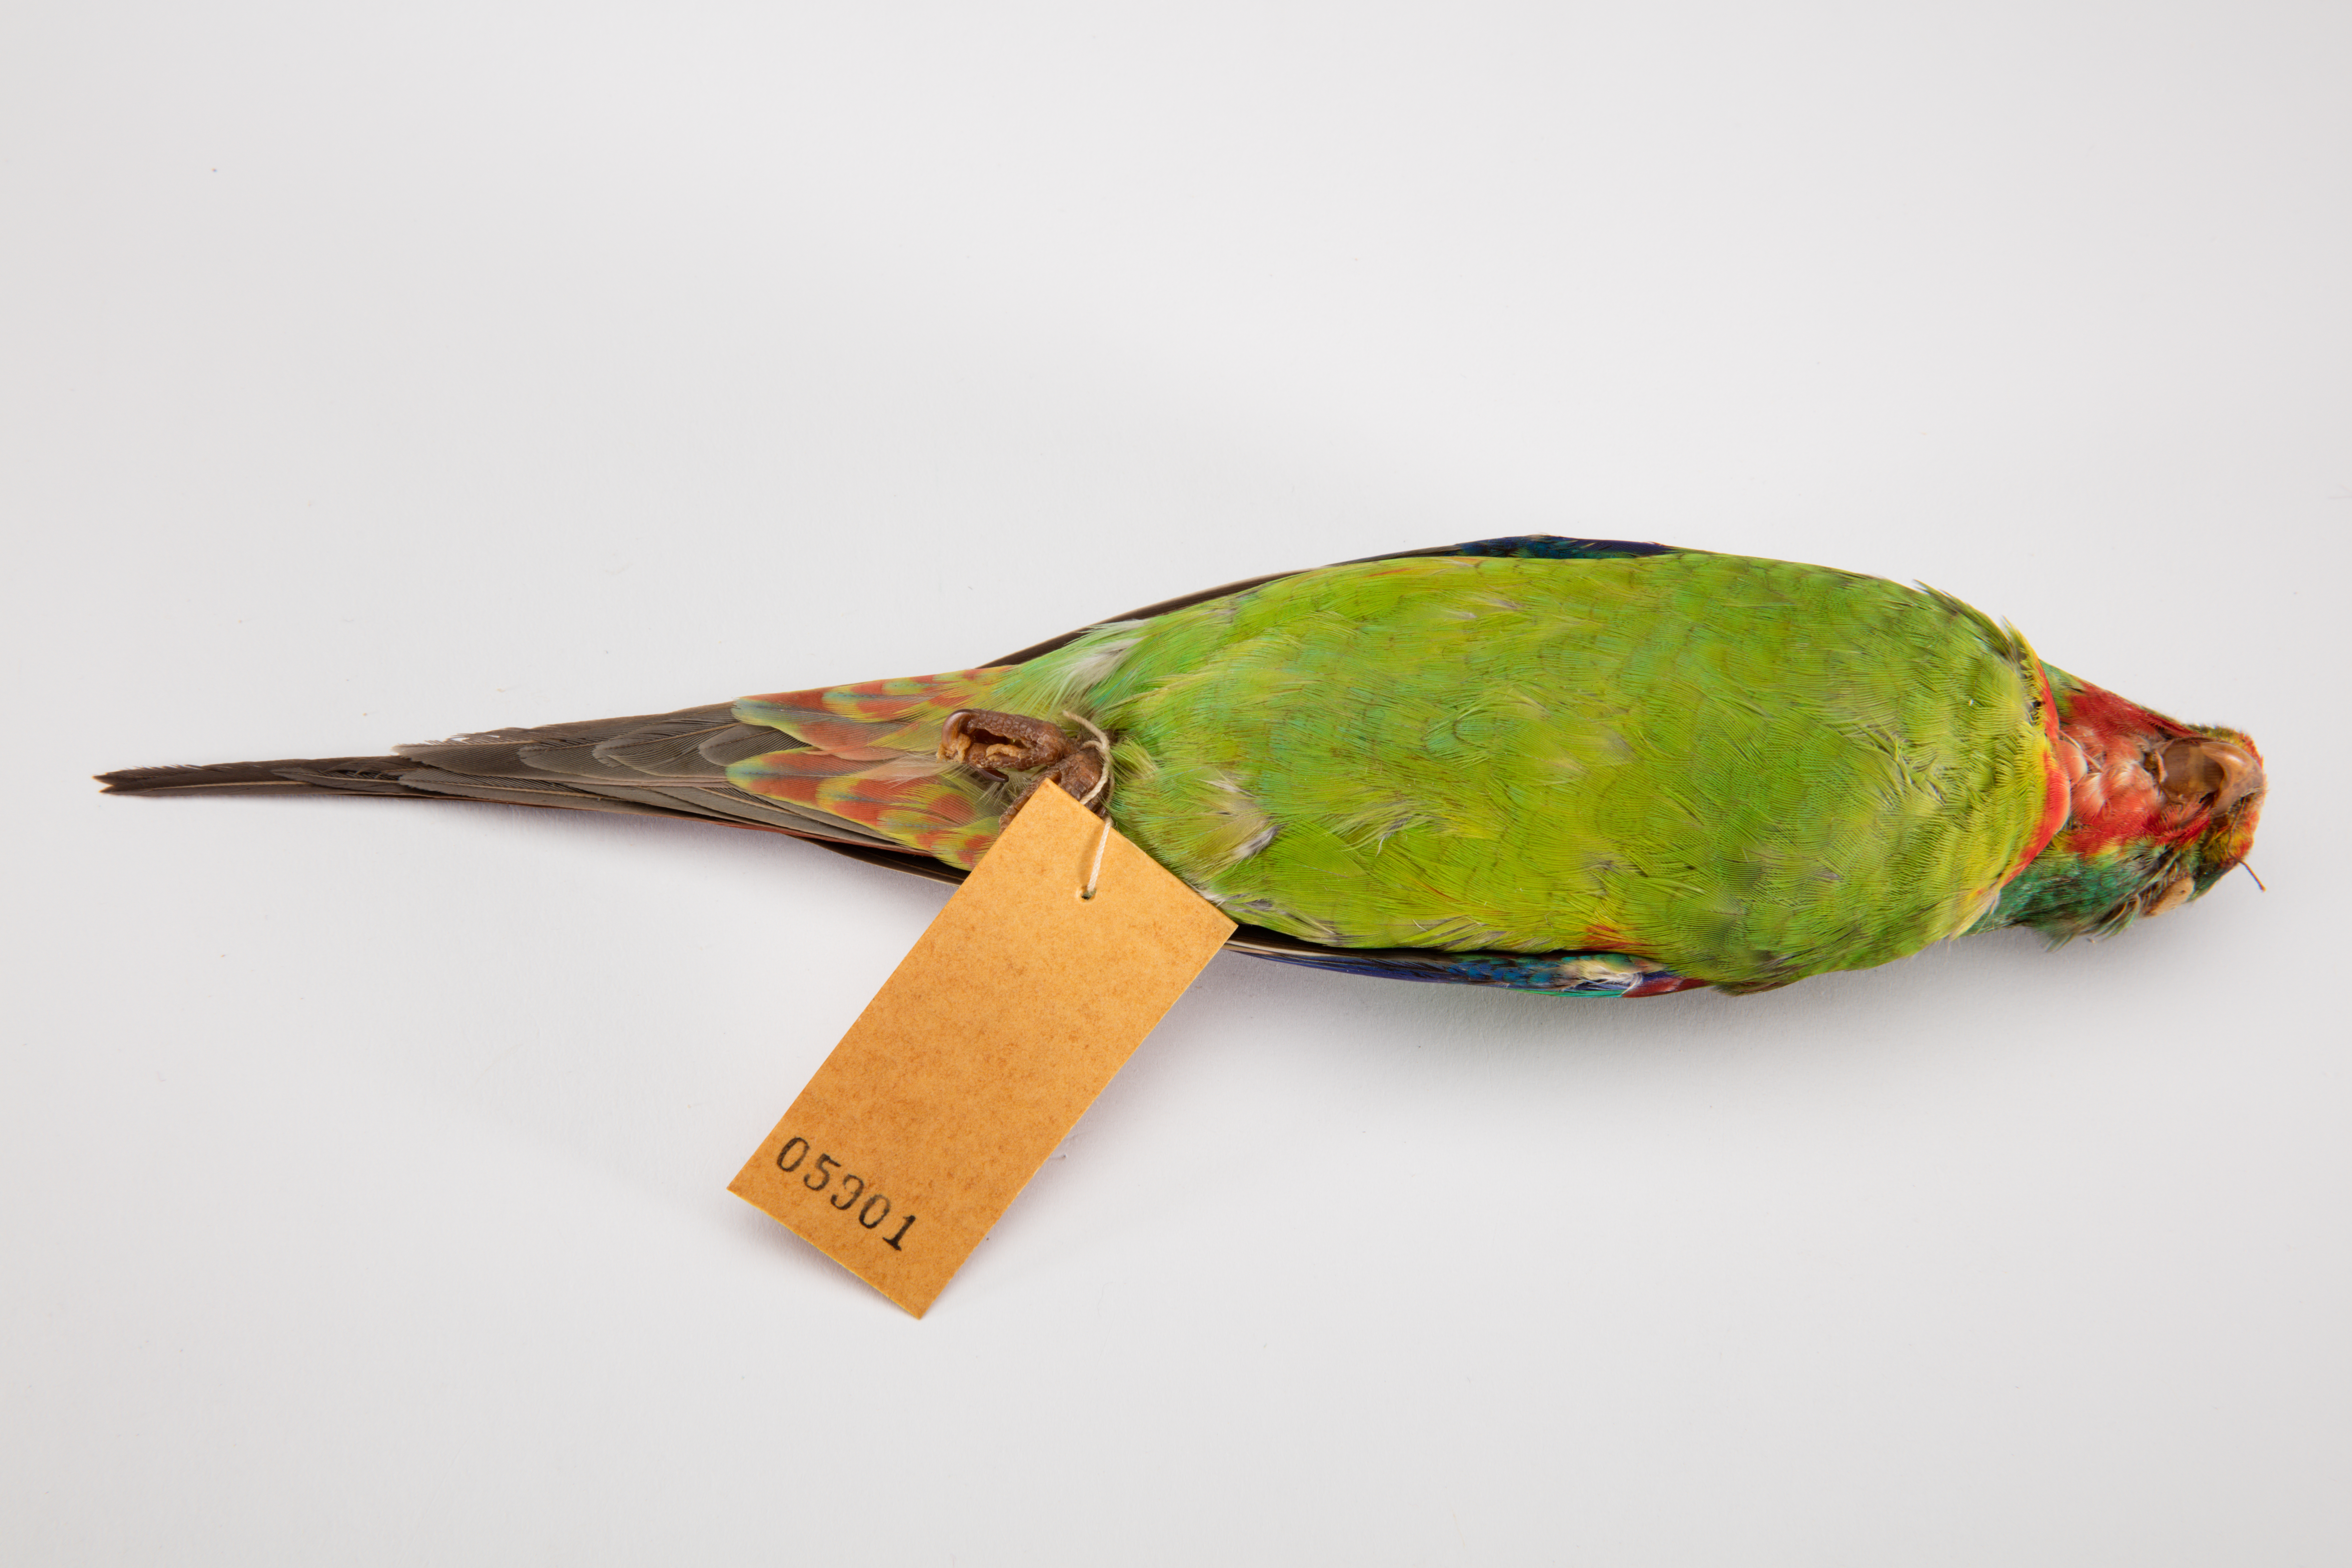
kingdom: Animalia
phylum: Chordata
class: Aves
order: Psittaciformes
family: Psittacidae
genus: Lathamus
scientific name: Lathamus discolor
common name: Swift parrot
